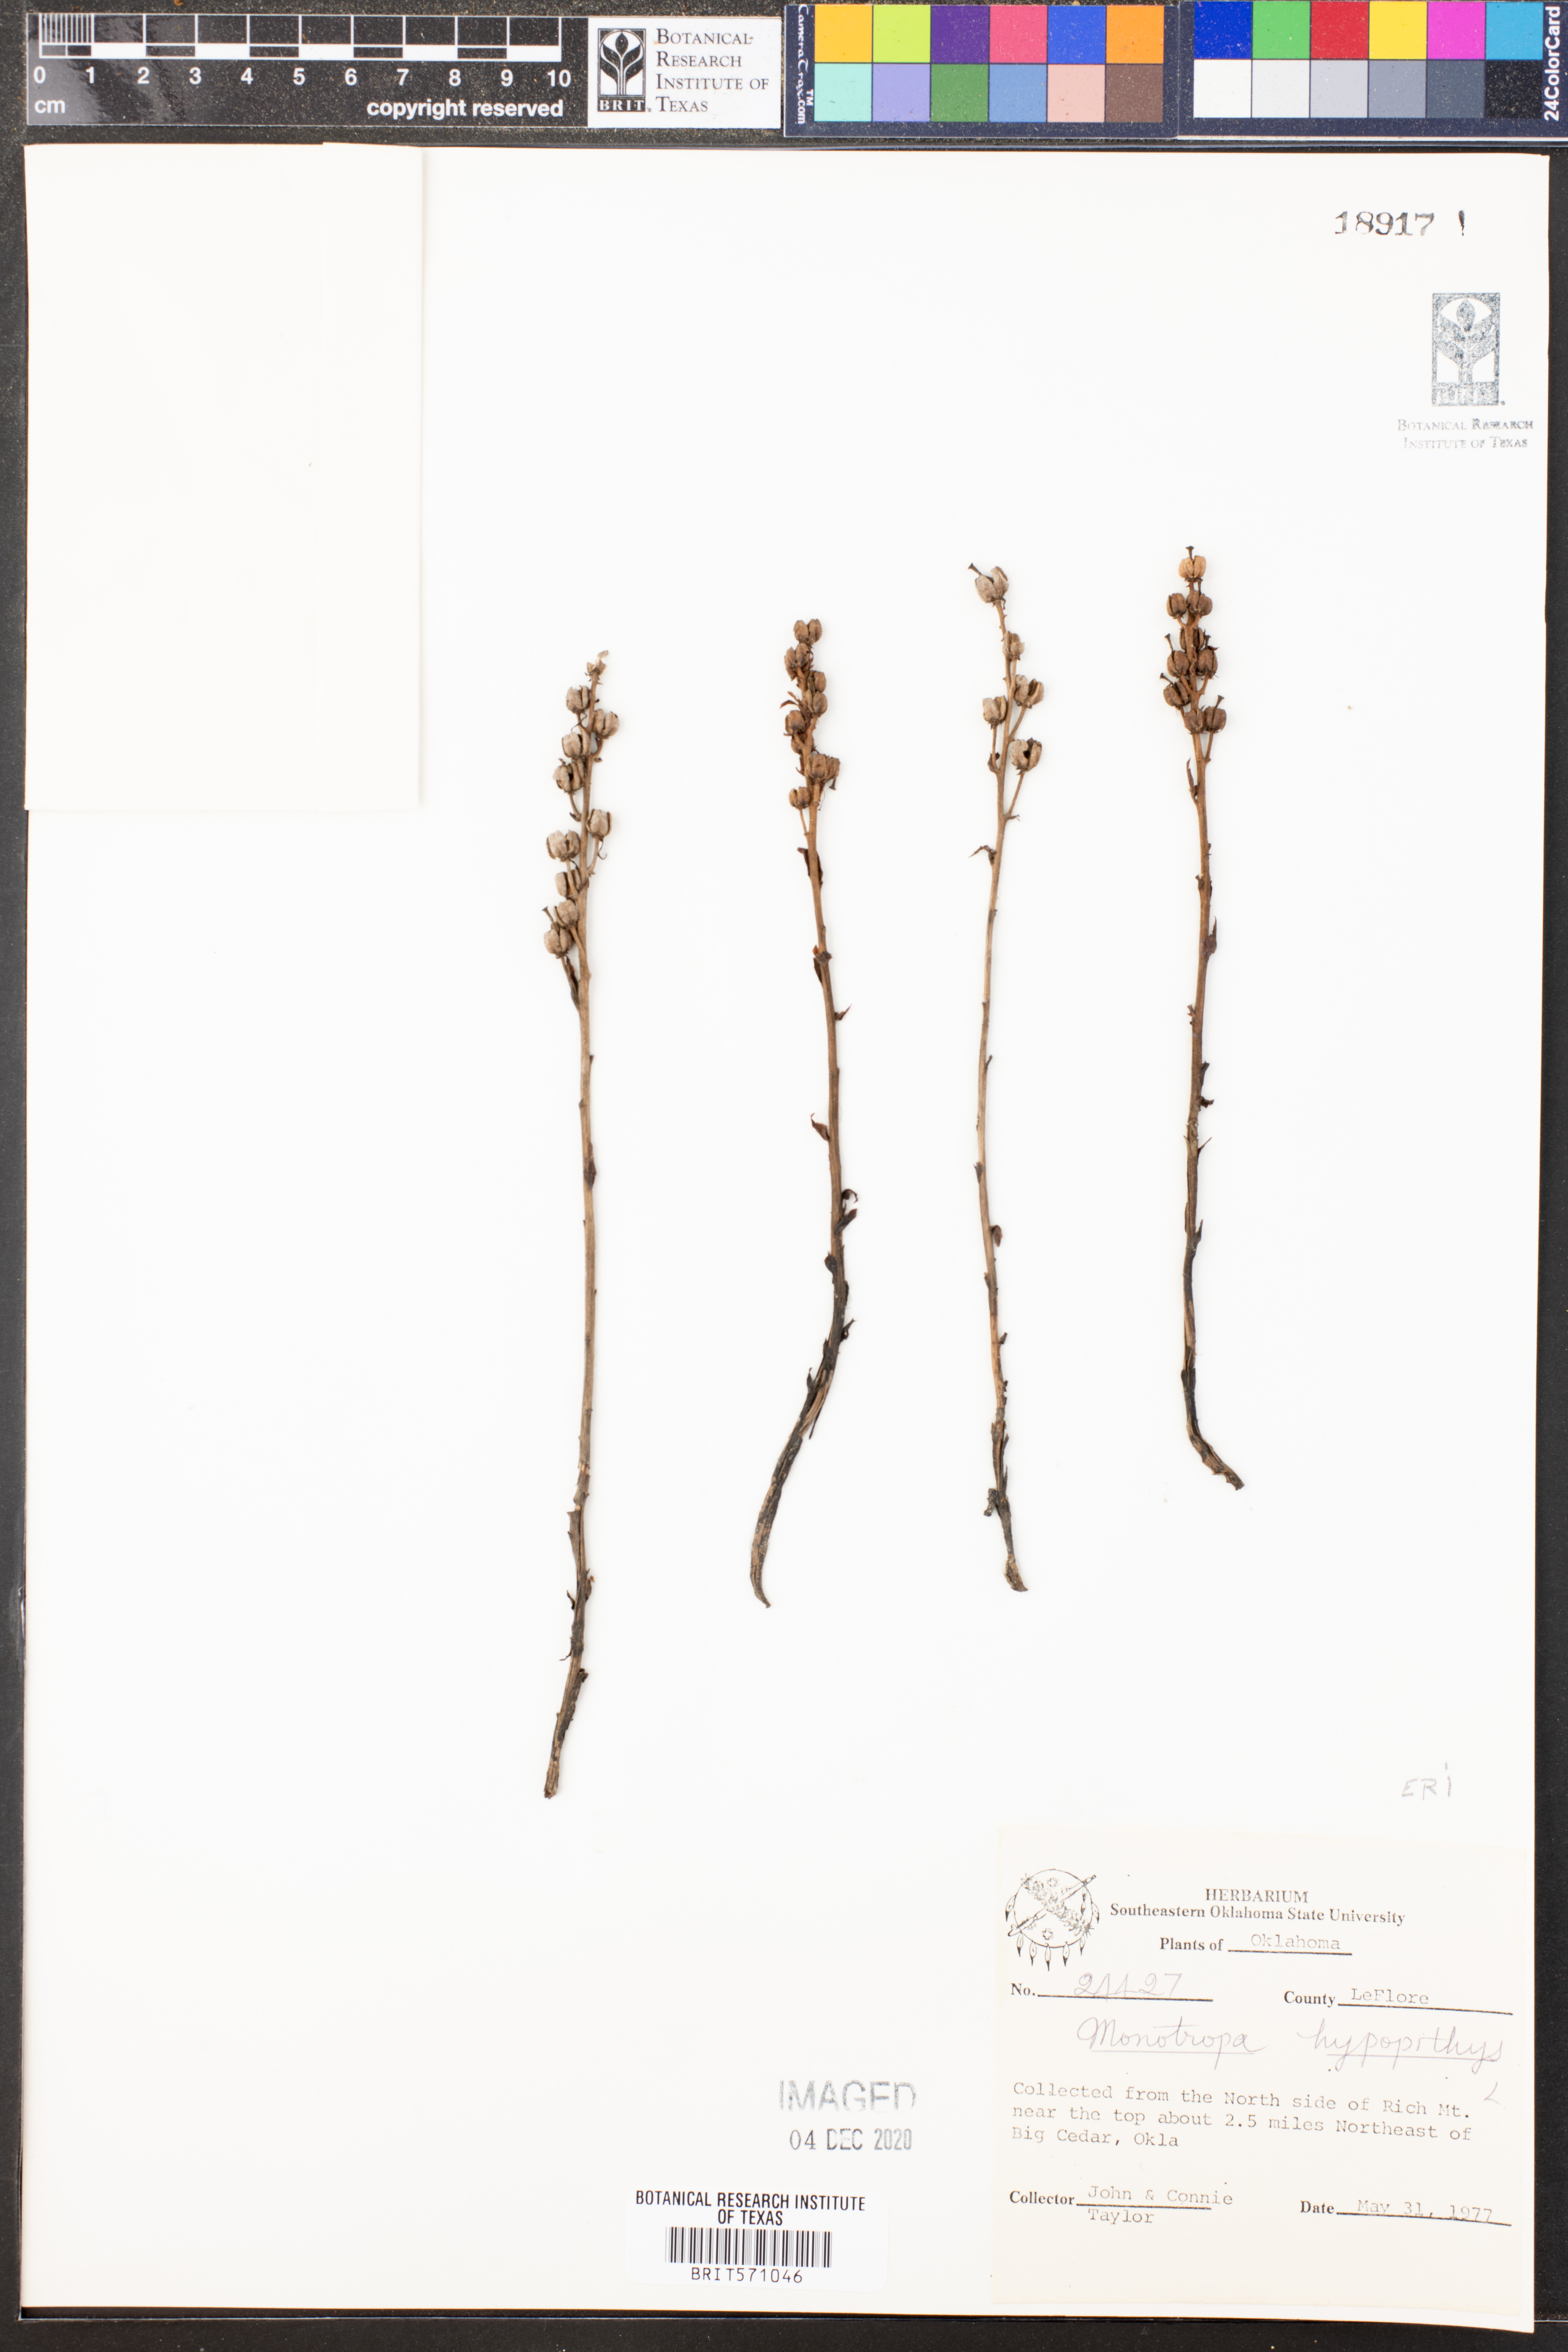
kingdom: Plantae
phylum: Tracheophyta
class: Magnoliopsida
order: Ericales
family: Ericaceae
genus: Hypopitys
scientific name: Hypopitys monotropa
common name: Yellow bird's-nest
